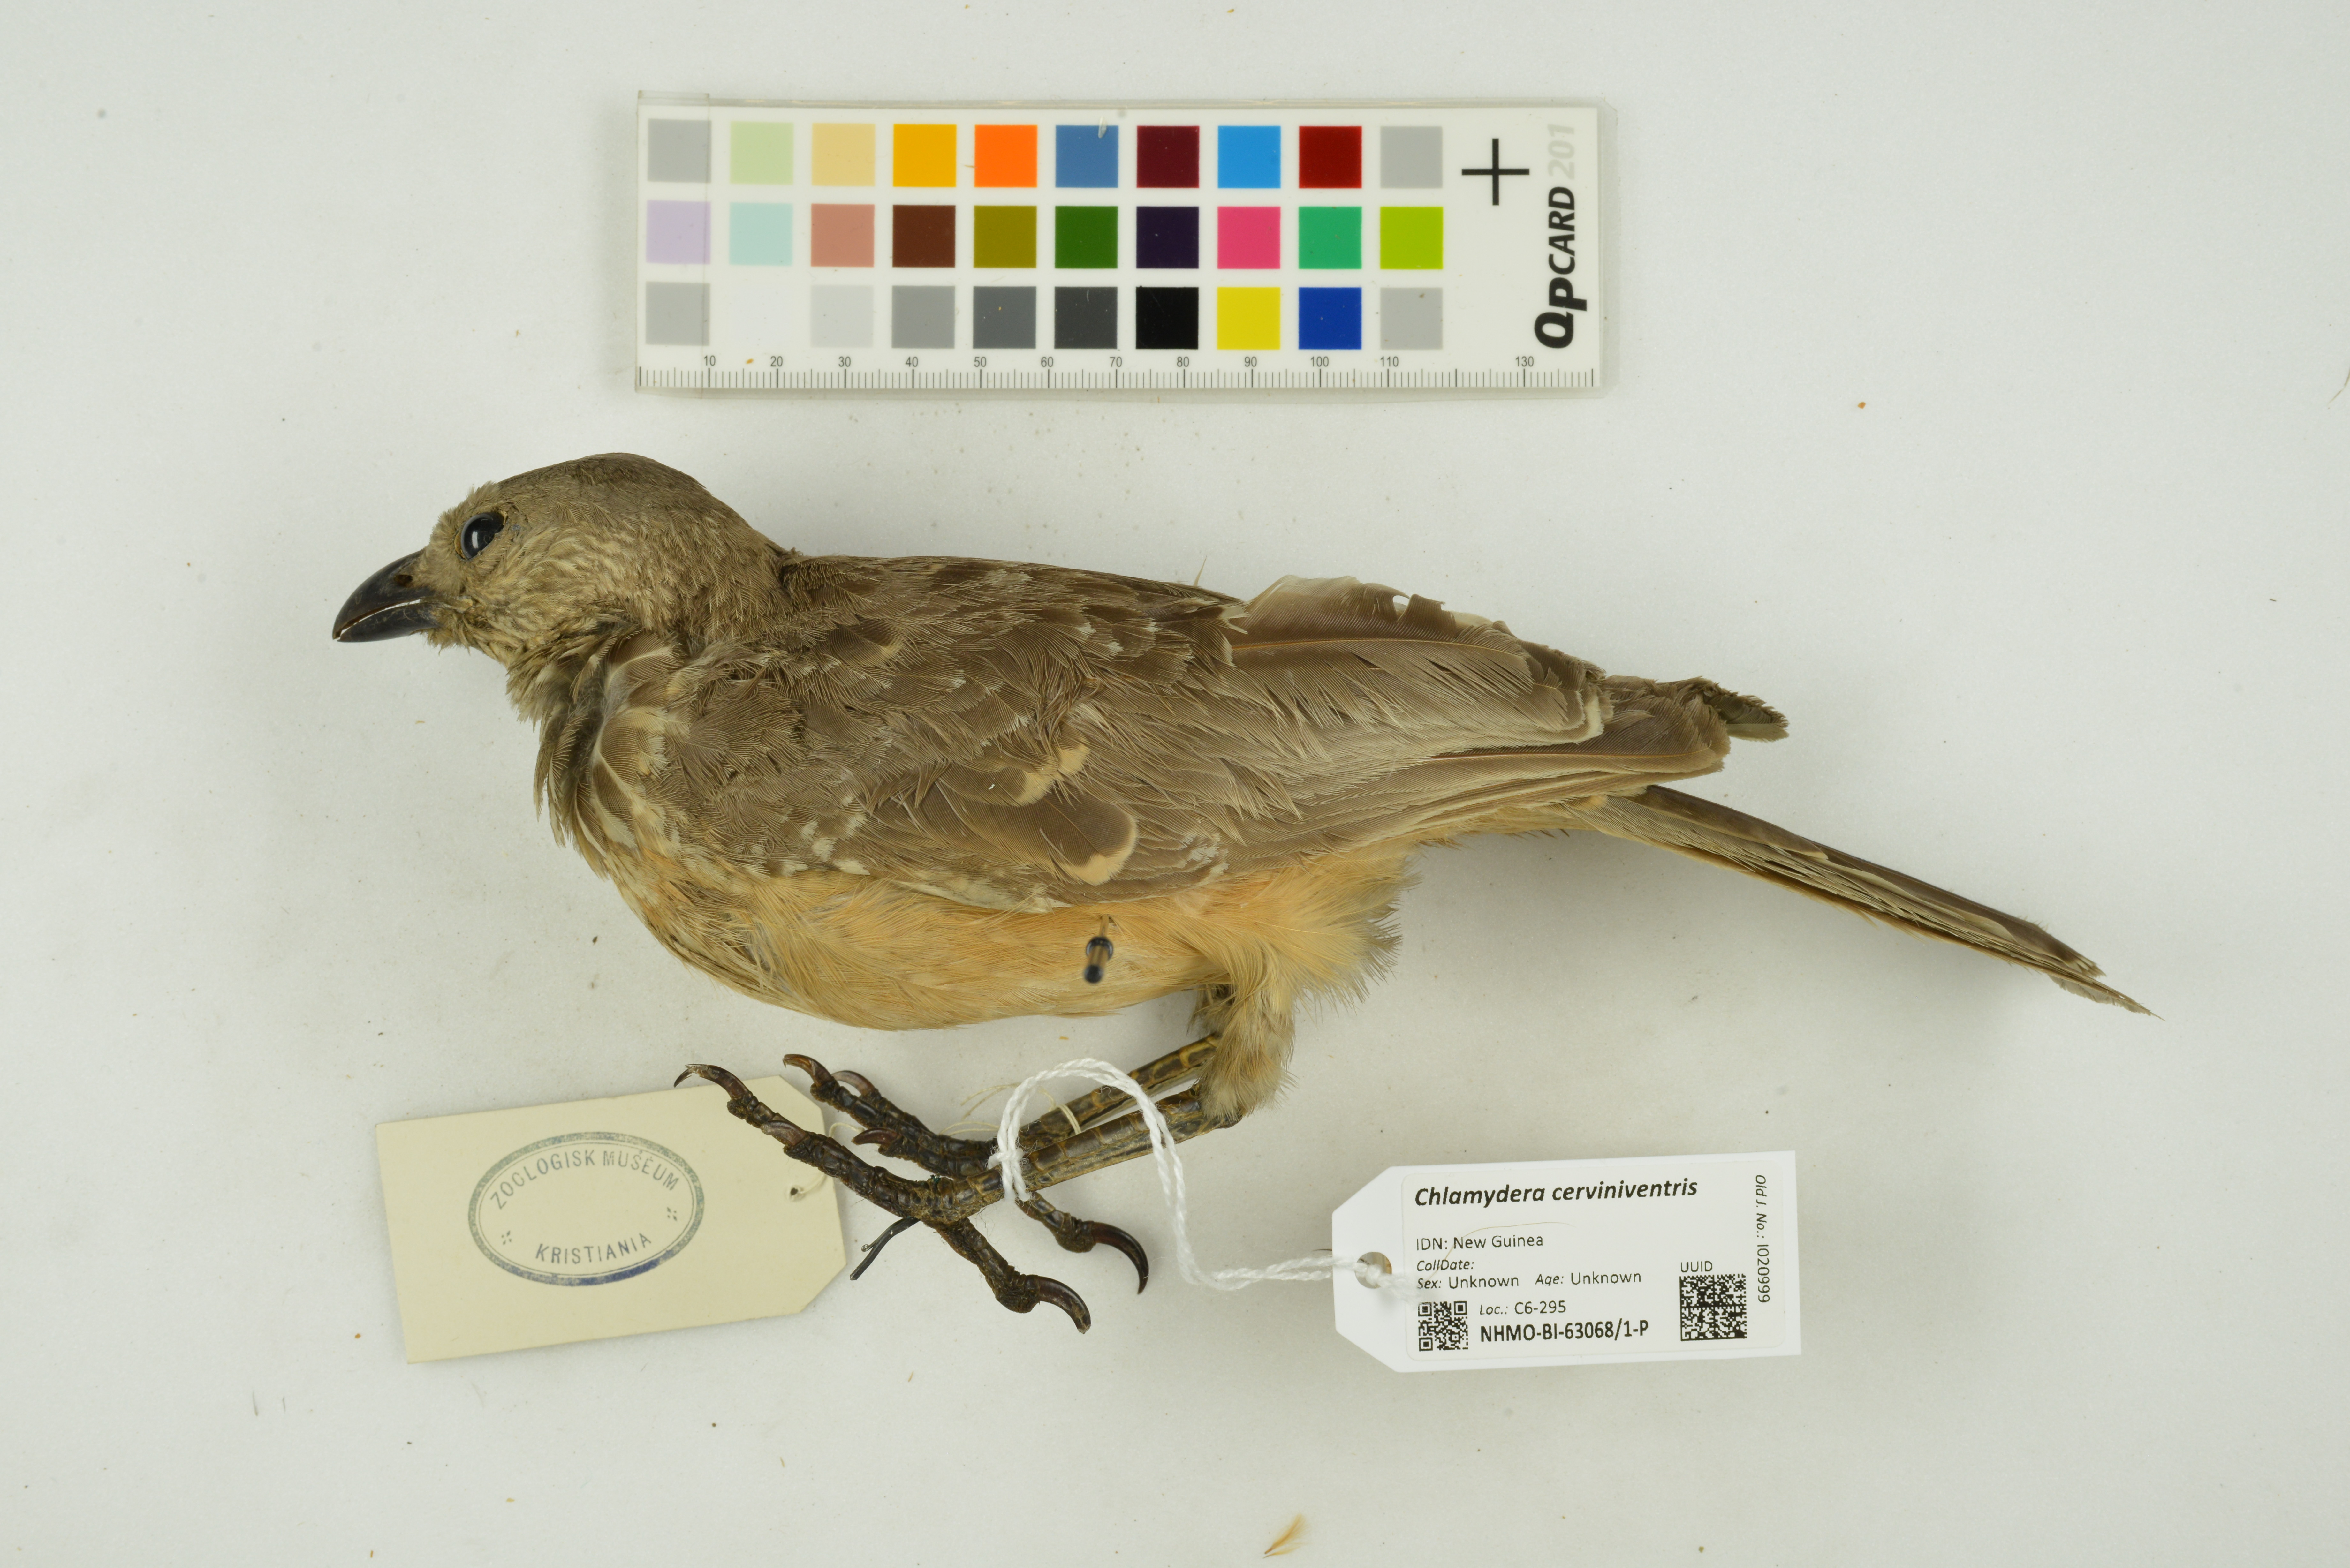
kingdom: Animalia
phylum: Chordata
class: Aves
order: Passeriformes
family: Ptilonorhynchidae
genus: Chlamydera
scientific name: Chlamydera cerviniventris
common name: Fawn-breasted bowerbird
